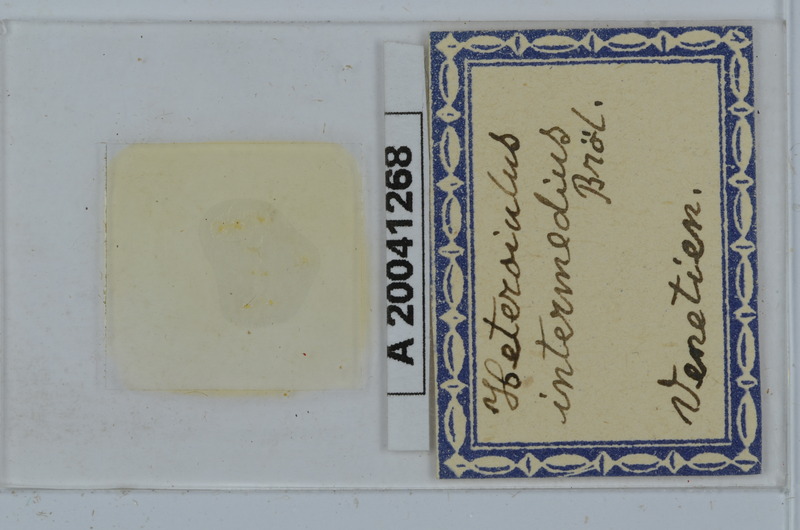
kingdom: Animalia
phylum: Arthropoda
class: Diplopoda
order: Julida
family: Julidae
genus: Heteroiulus
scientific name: Heteroiulus intermedius
